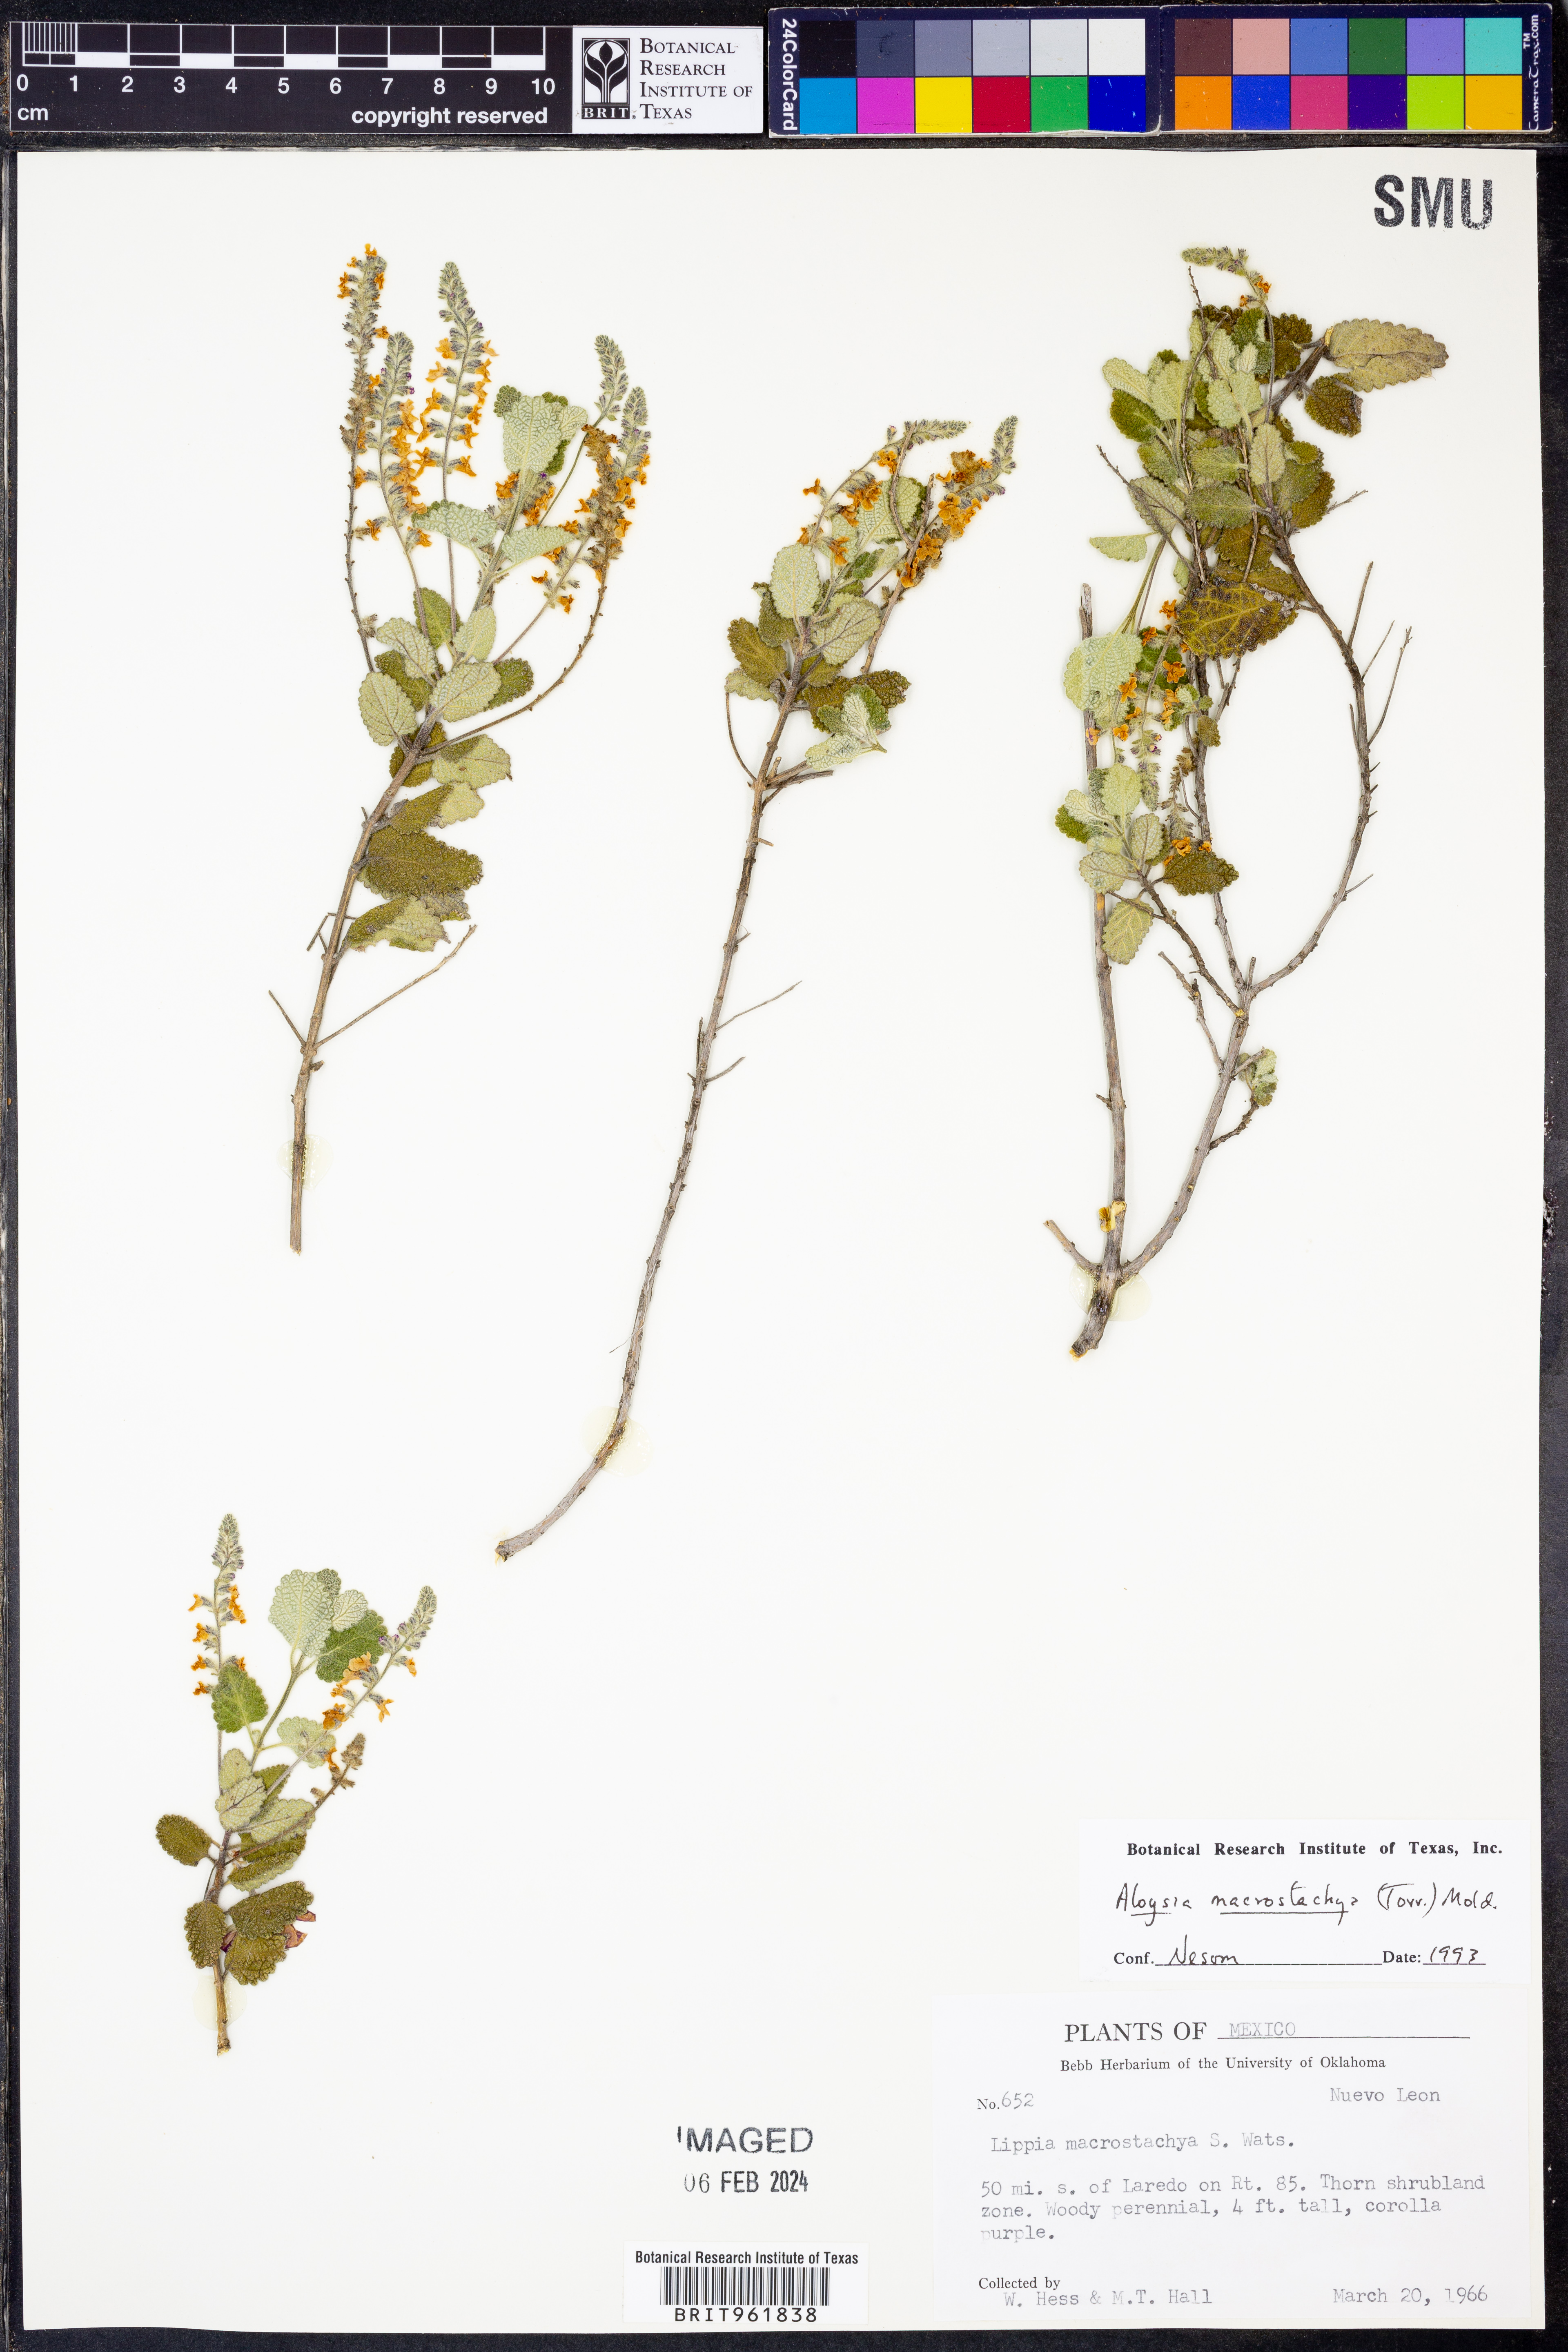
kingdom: Plantae
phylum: Tracheophyta
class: Magnoliopsida
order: Lamiales
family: Verbenaceae
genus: Aloysia
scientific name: Aloysia
